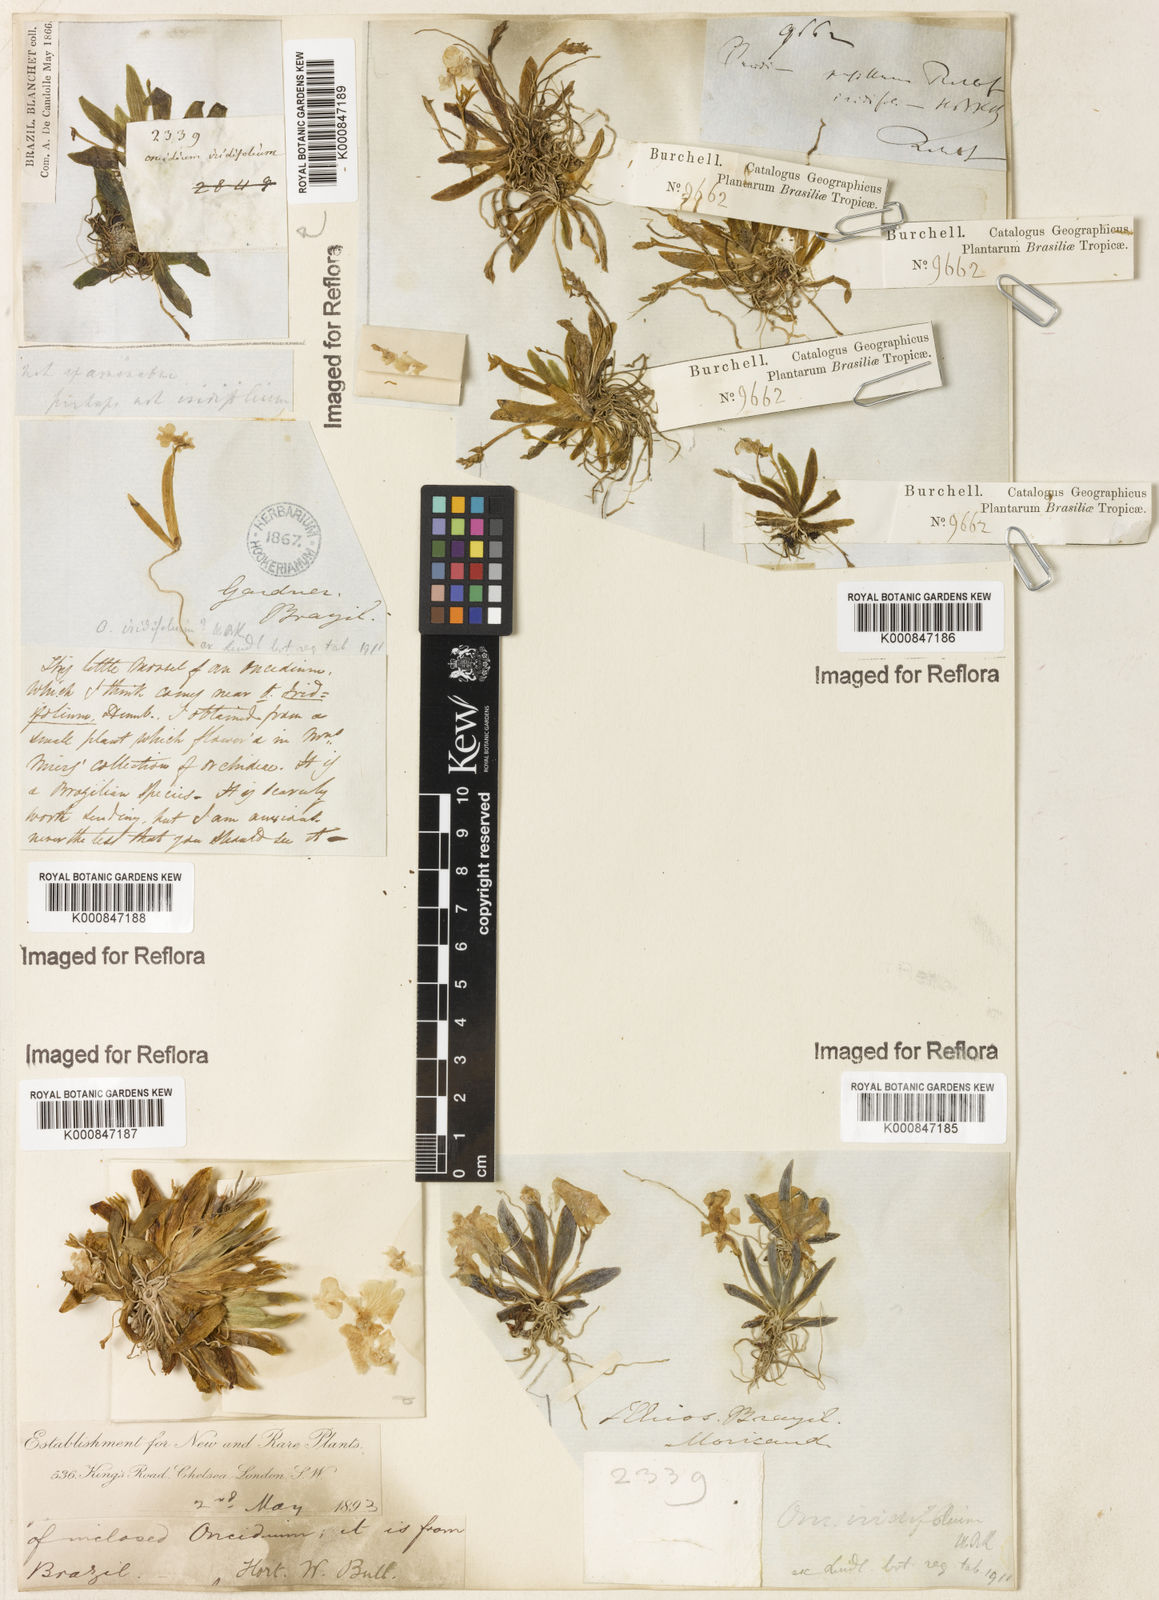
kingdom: Plantae
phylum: Tracheophyta
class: Liliopsida
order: Asparagales
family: Orchidaceae
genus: Oncidium
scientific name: Oncidium
